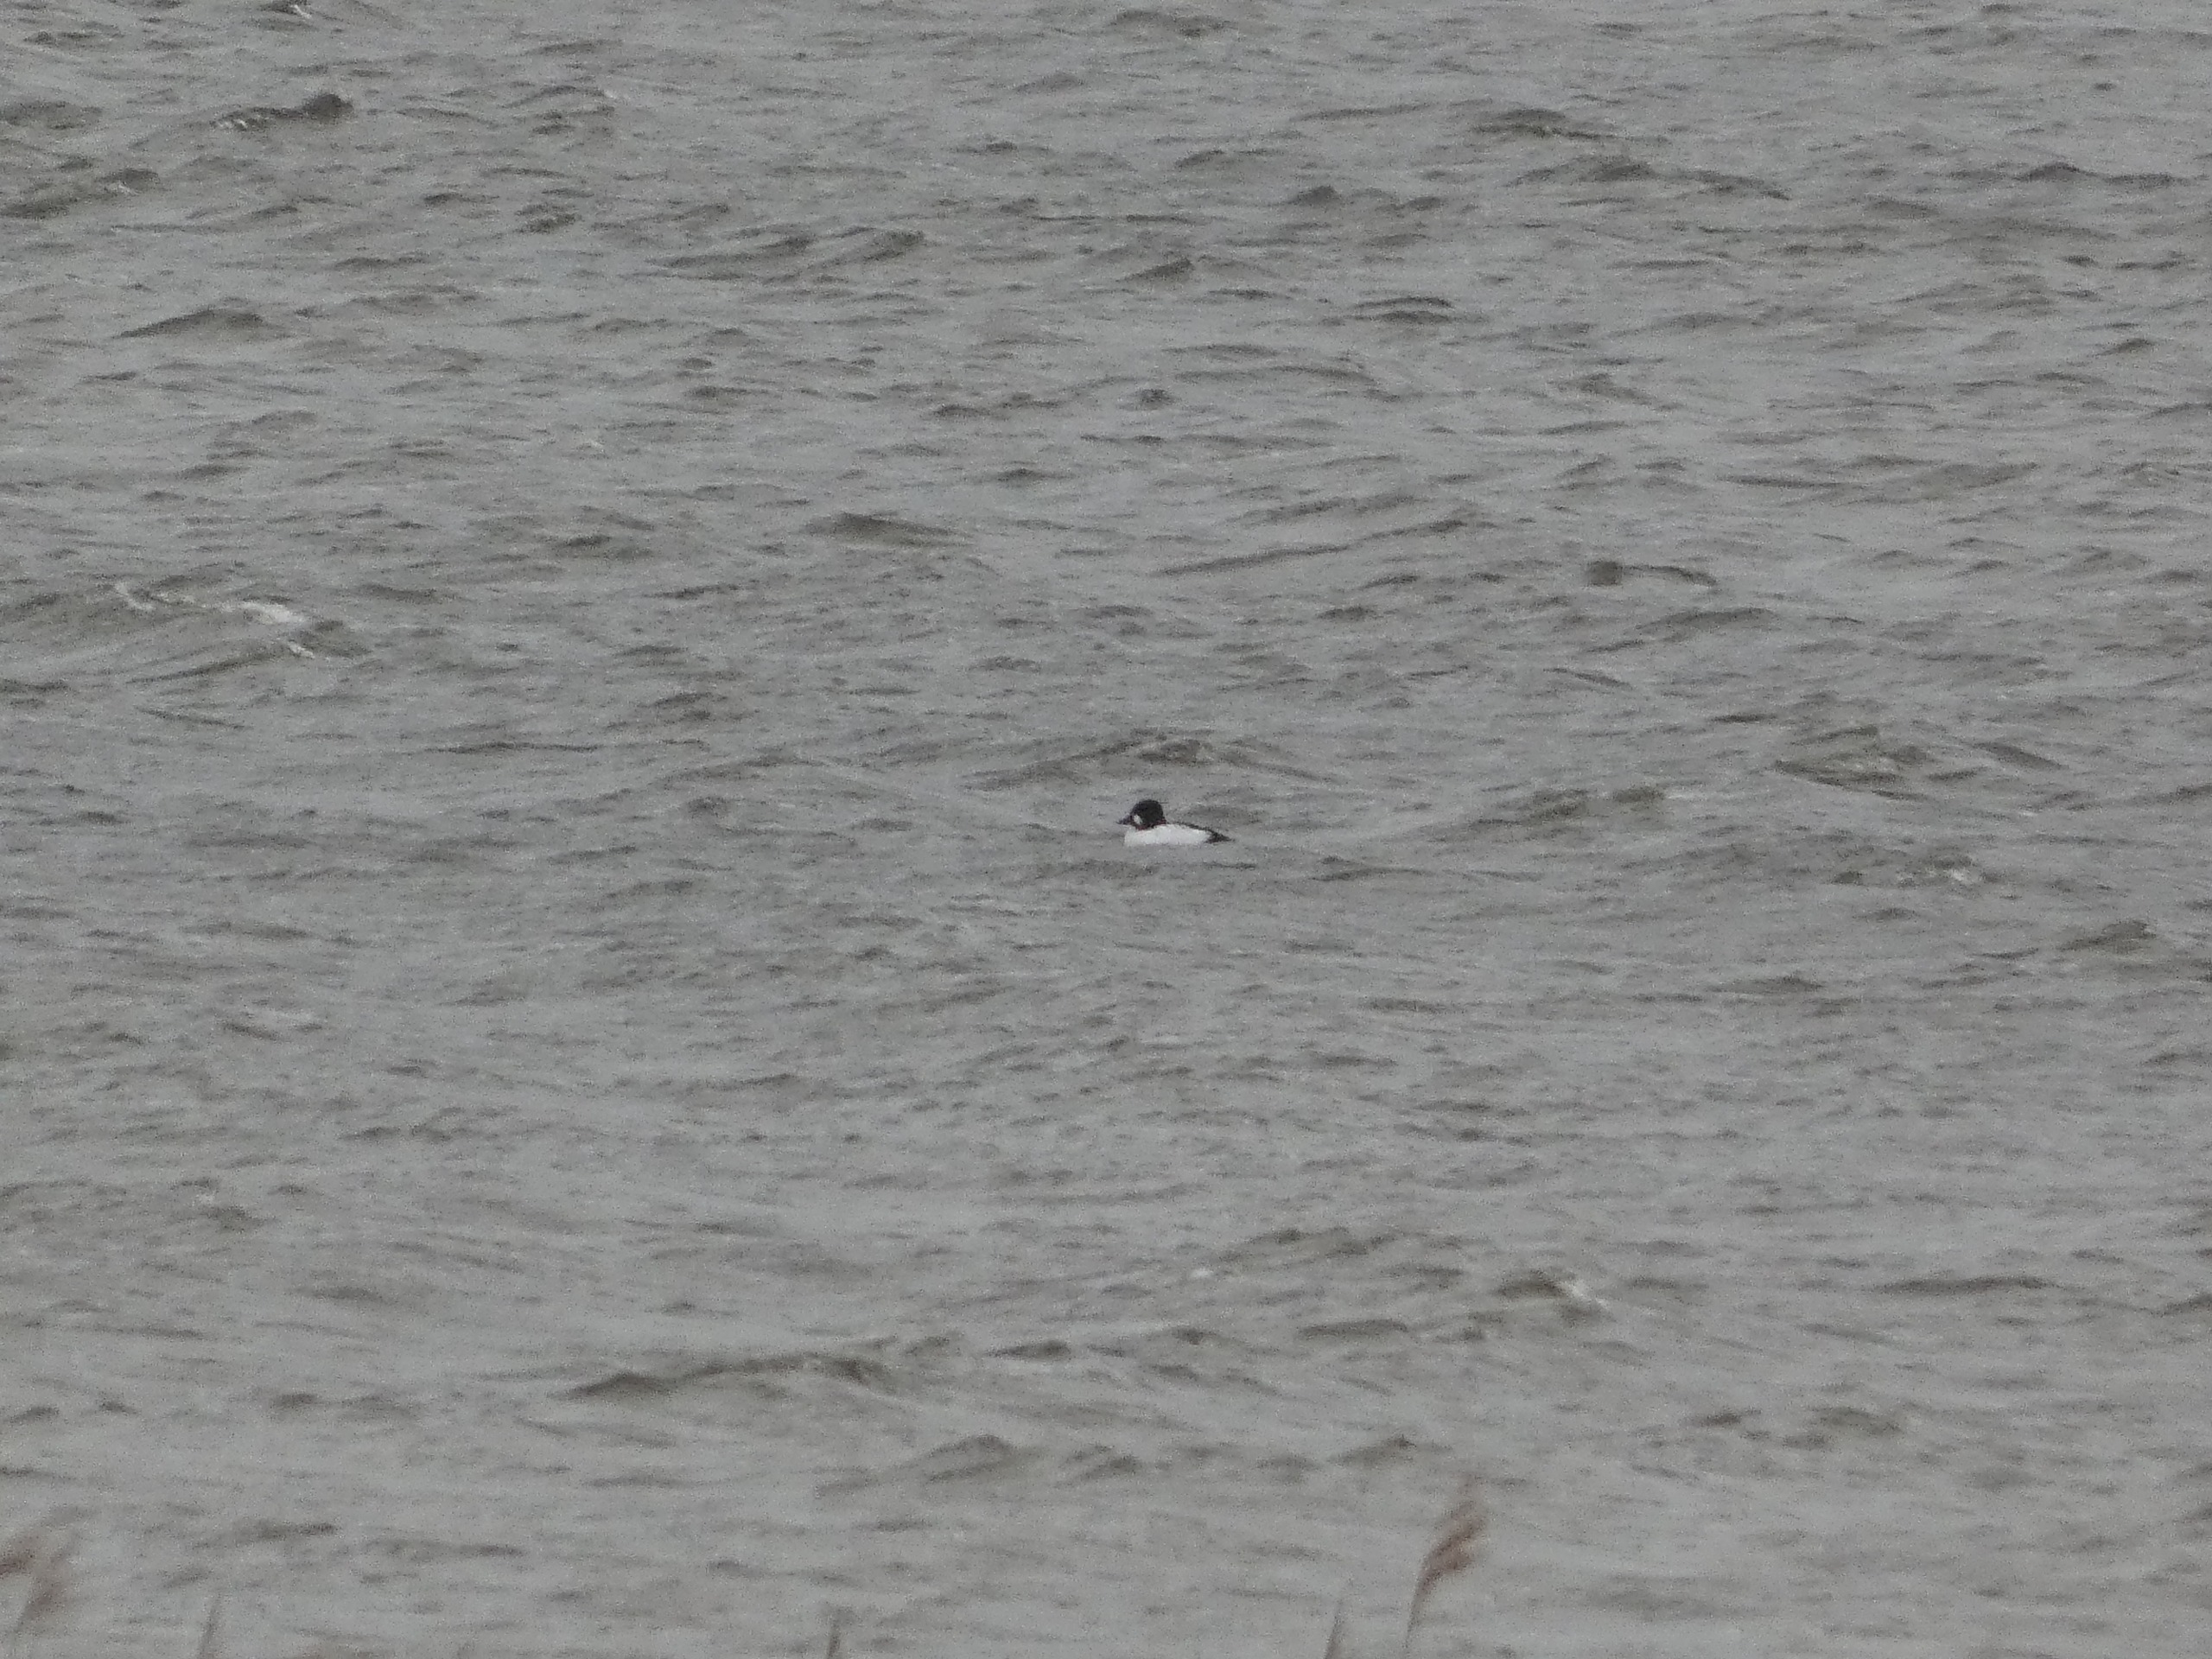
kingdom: Animalia
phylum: Chordata
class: Aves
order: Anseriformes
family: Anatidae
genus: Bucephala
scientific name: Bucephala clangula
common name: Hvinand
